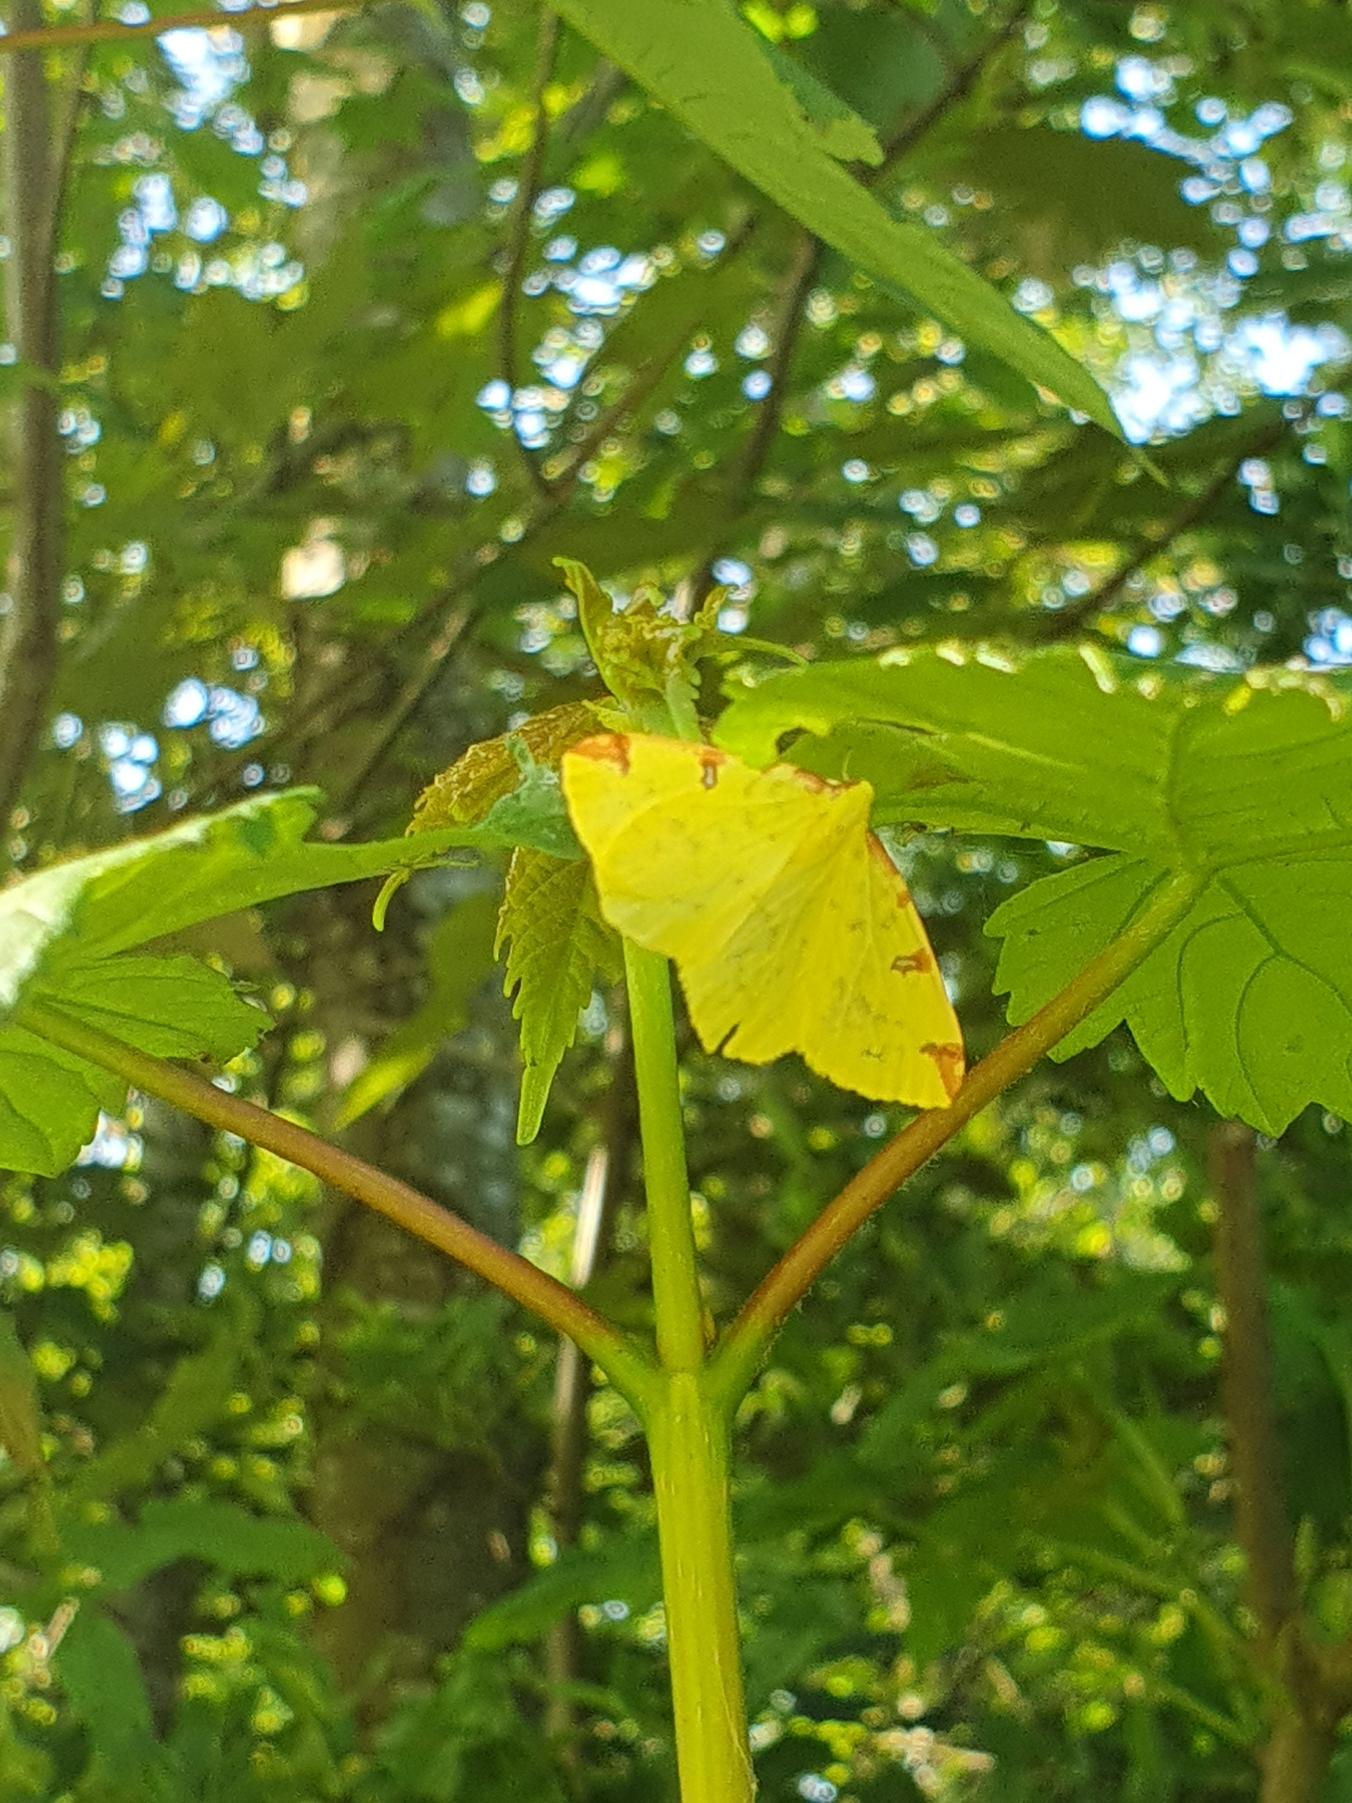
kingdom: Animalia
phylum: Arthropoda
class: Insecta
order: Lepidoptera
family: Geometridae
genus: Opisthograptis
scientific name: Opisthograptis luteolata
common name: Citronmåler
